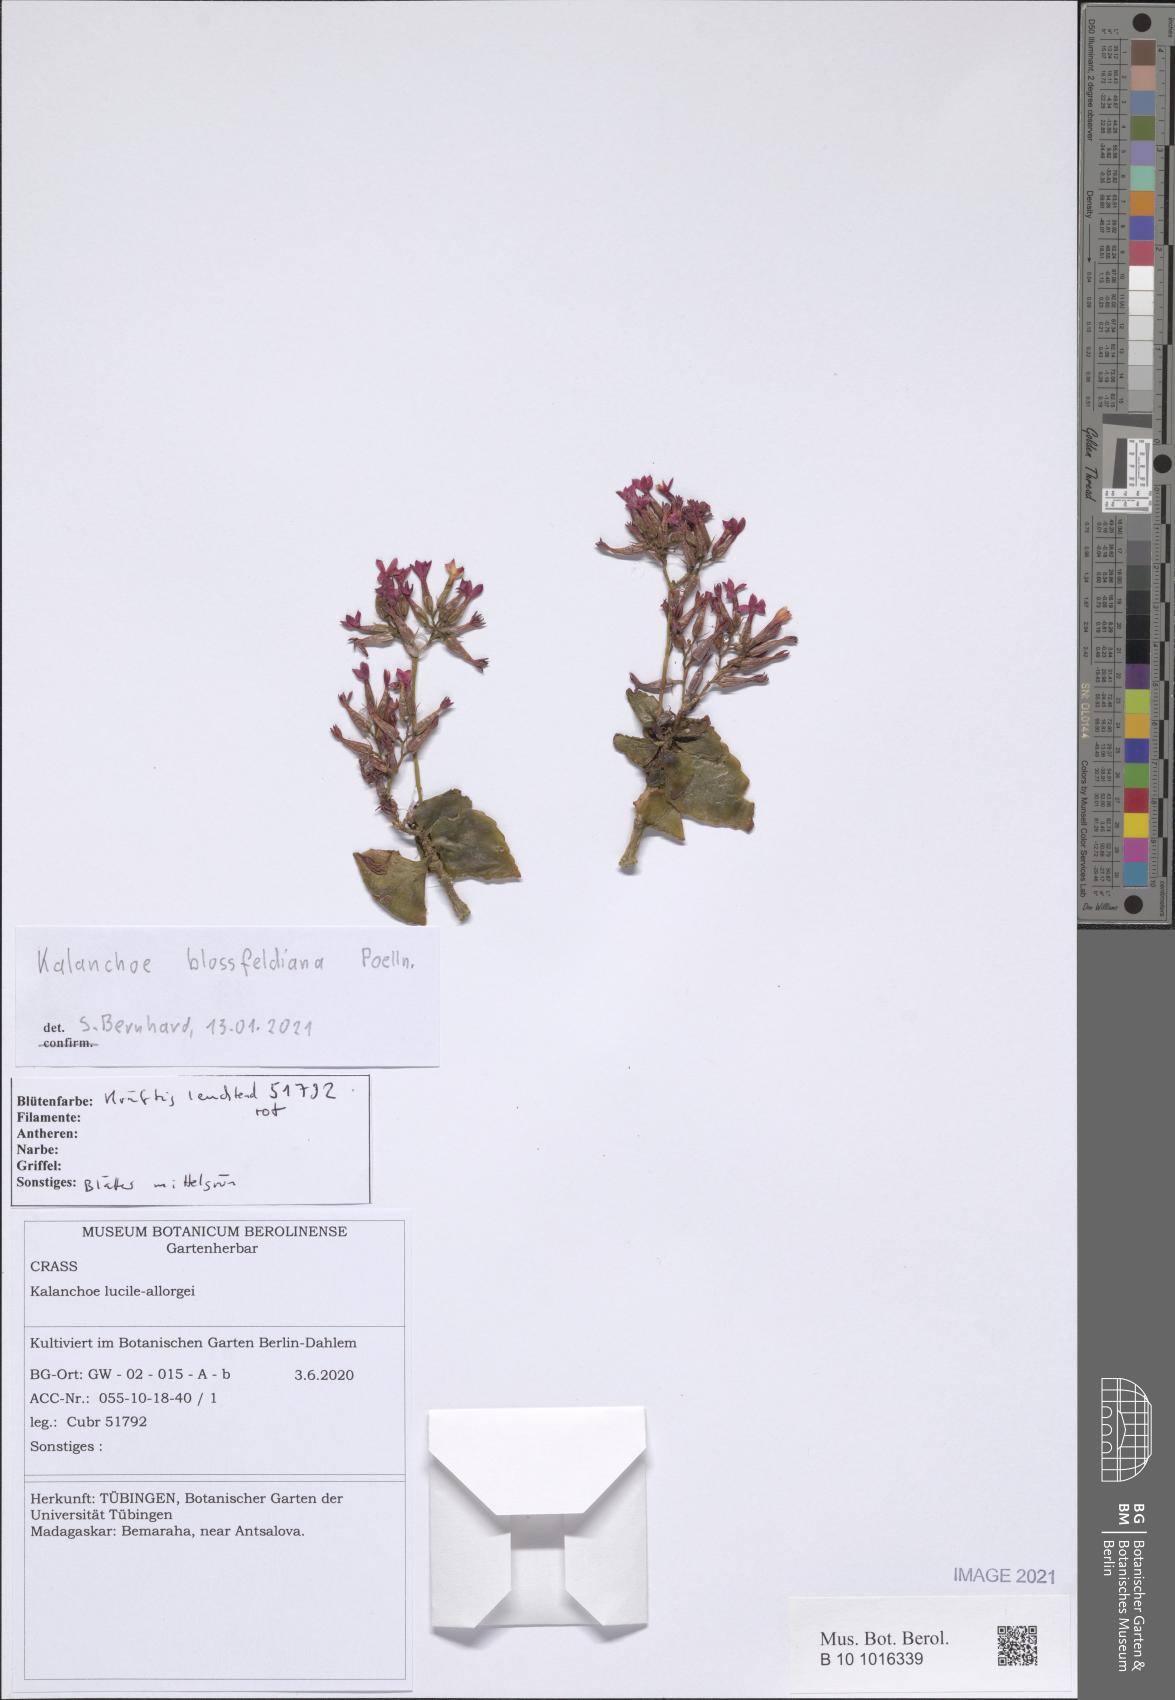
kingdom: Plantae
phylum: Tracheophyta
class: Magnoliopsida
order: Saxifragales
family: Crassulaceae
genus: Kalanchoe
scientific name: Kalanchoe blossfeldiana
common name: Flaming katy
